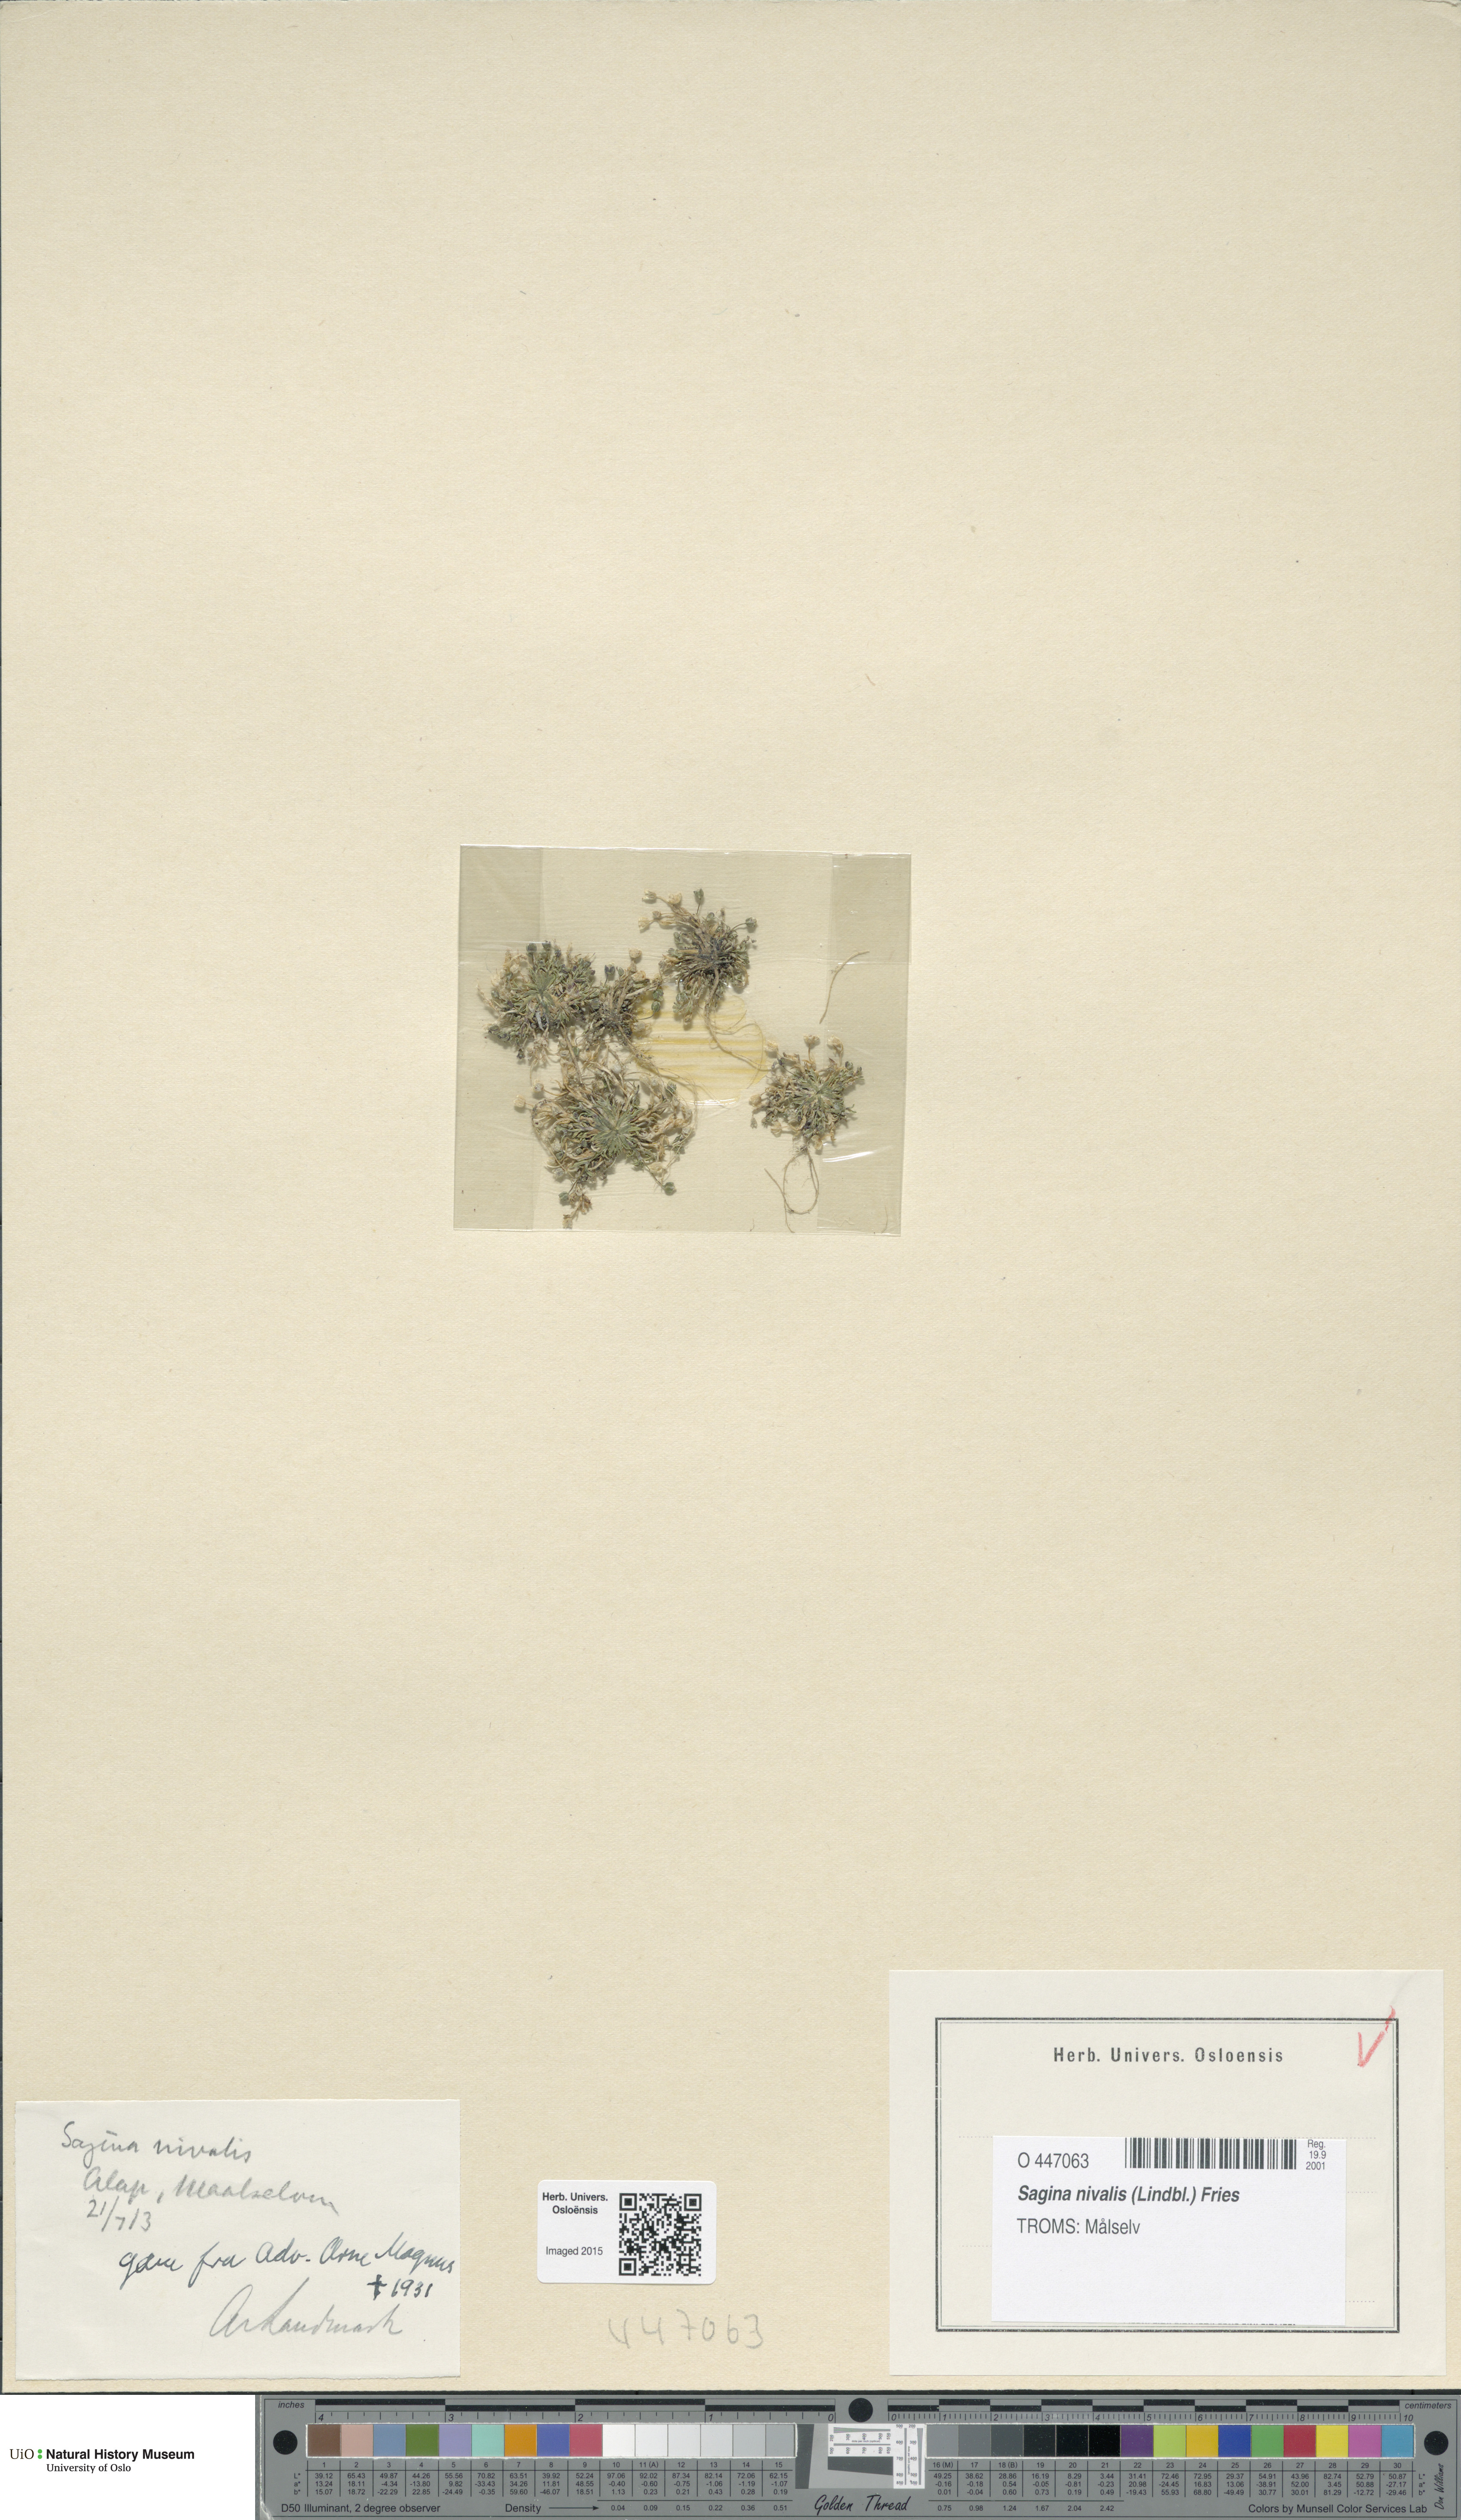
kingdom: Plantae
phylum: Tracheophyta
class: Magnoliopsida
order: Caryophyllales
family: Caryophyllaceae
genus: Sagina
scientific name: Sagina nivalis
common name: Snow pearlwort
